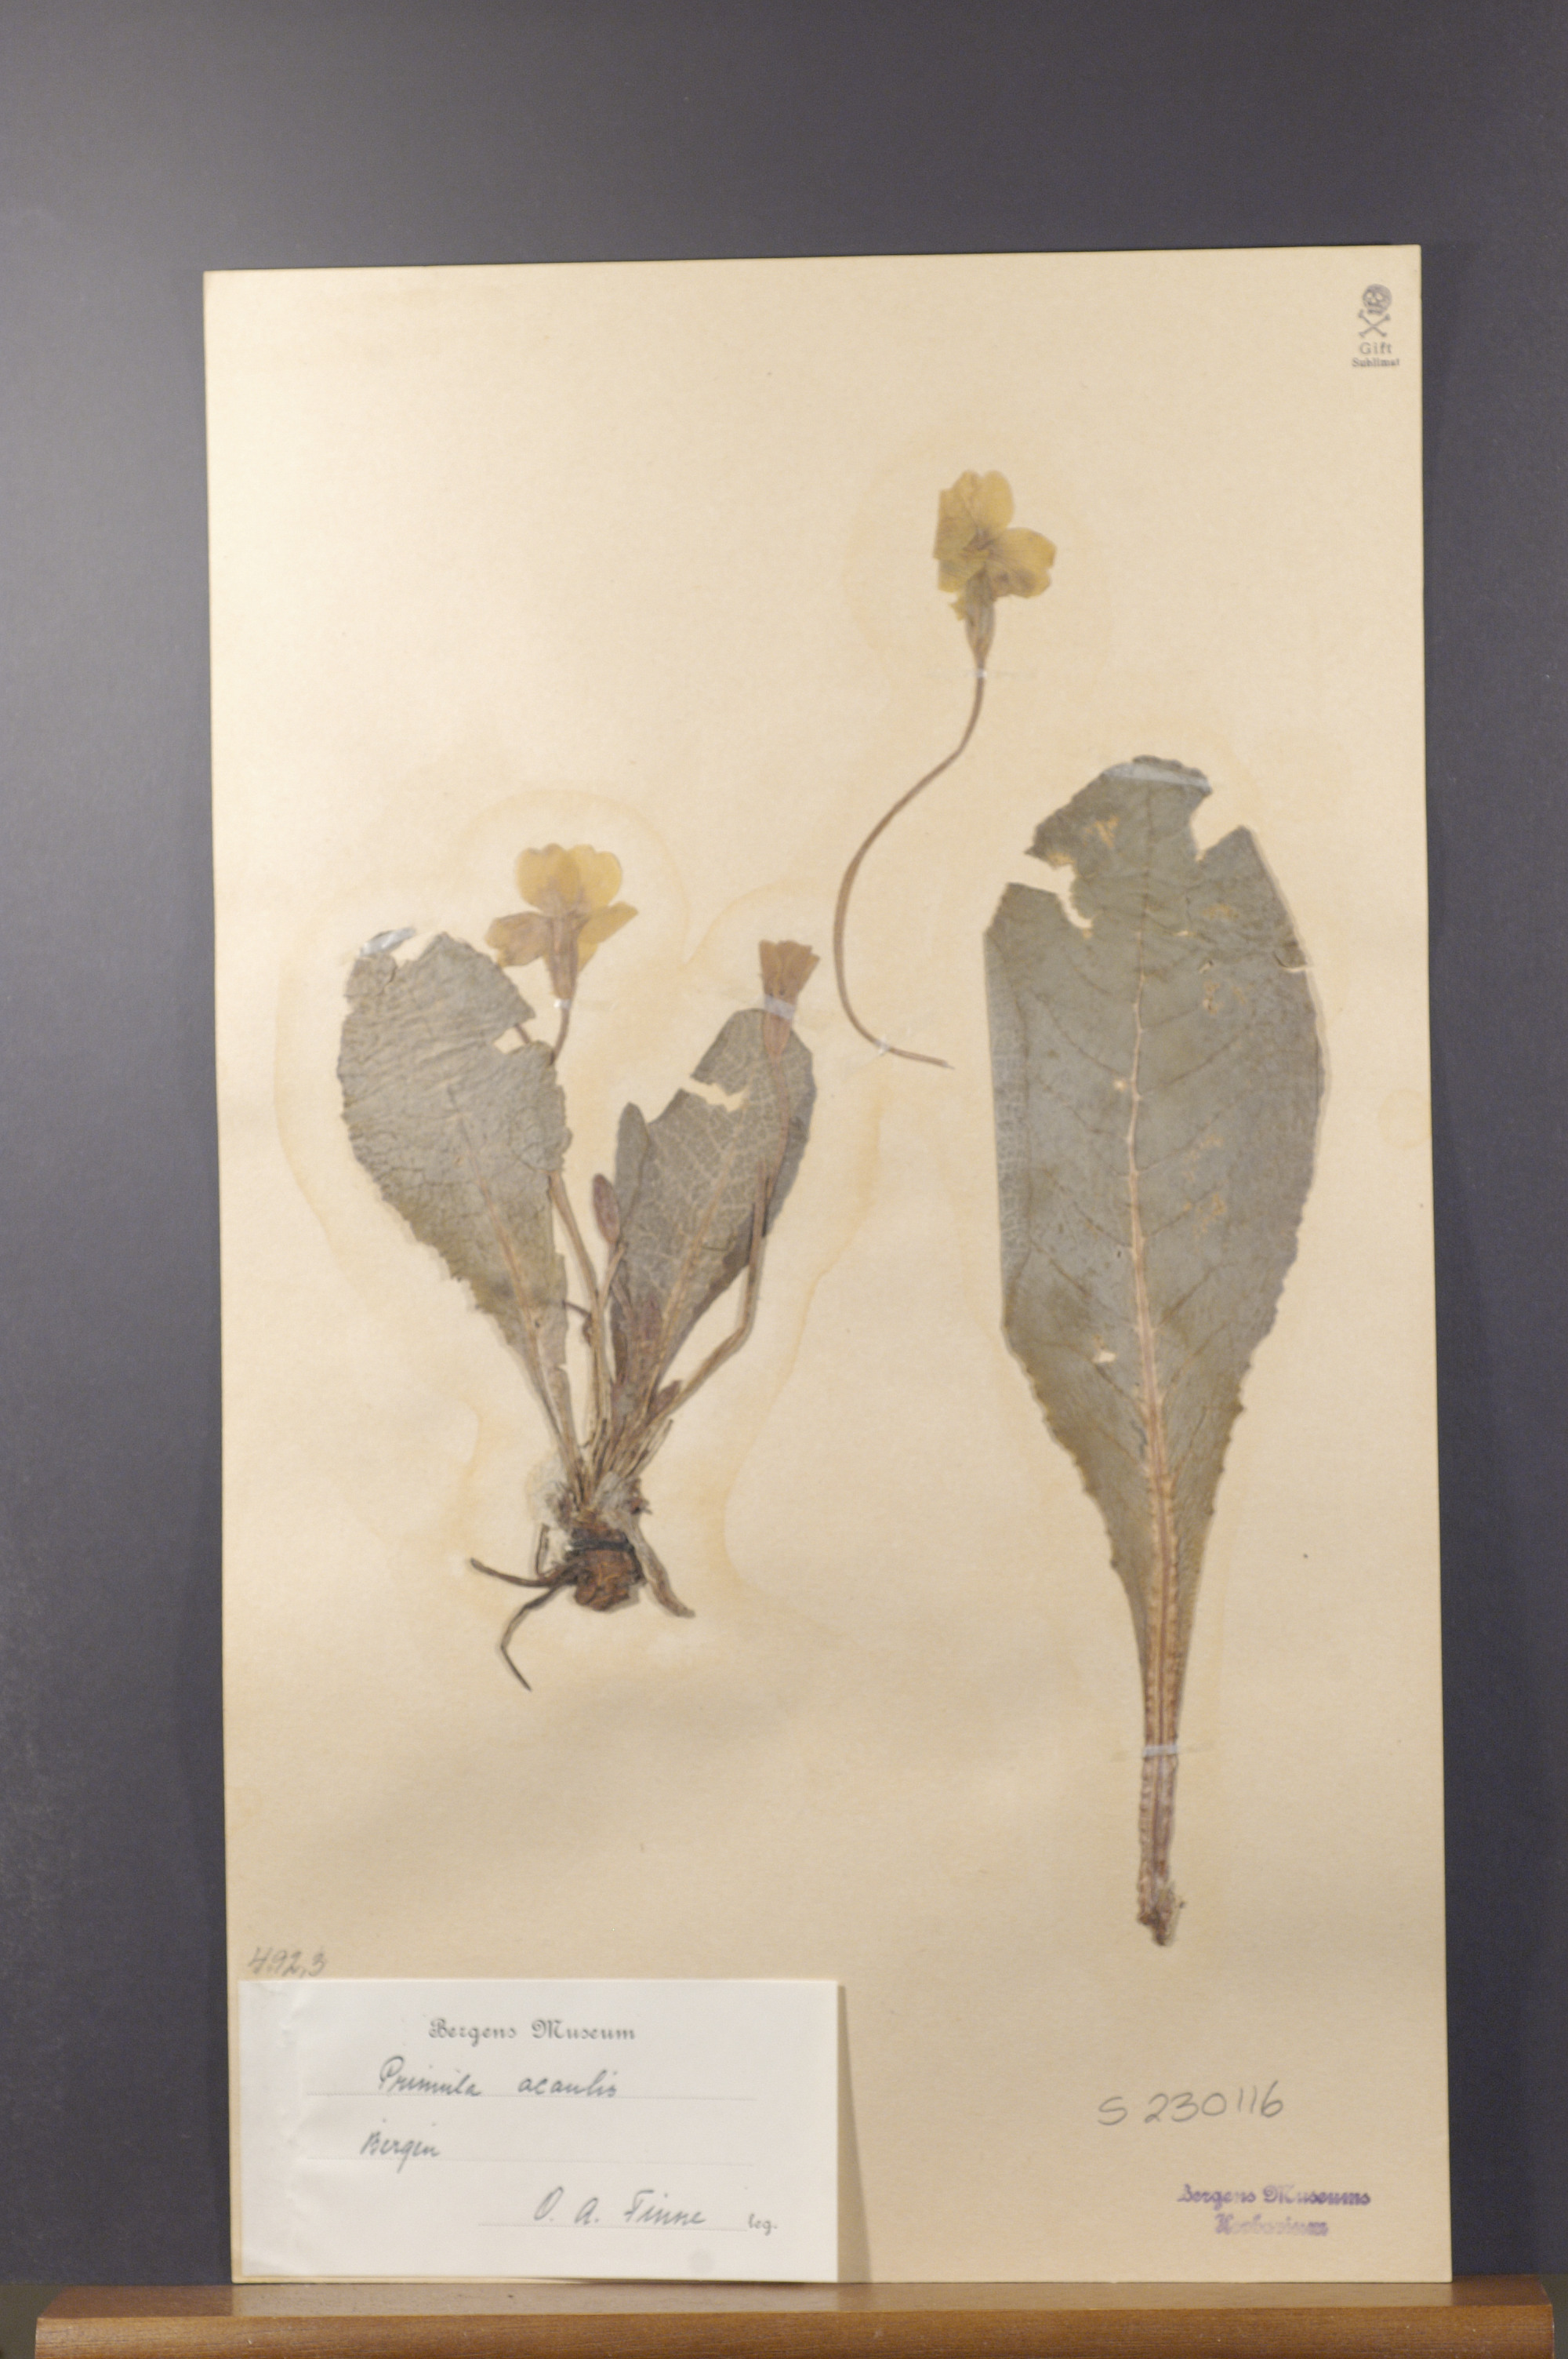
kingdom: Plantae
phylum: Tracheophyta
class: Magnoliopsida
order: Ericales
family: Primulaceae
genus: Primula
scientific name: Primula vulgaris
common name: Primrose
